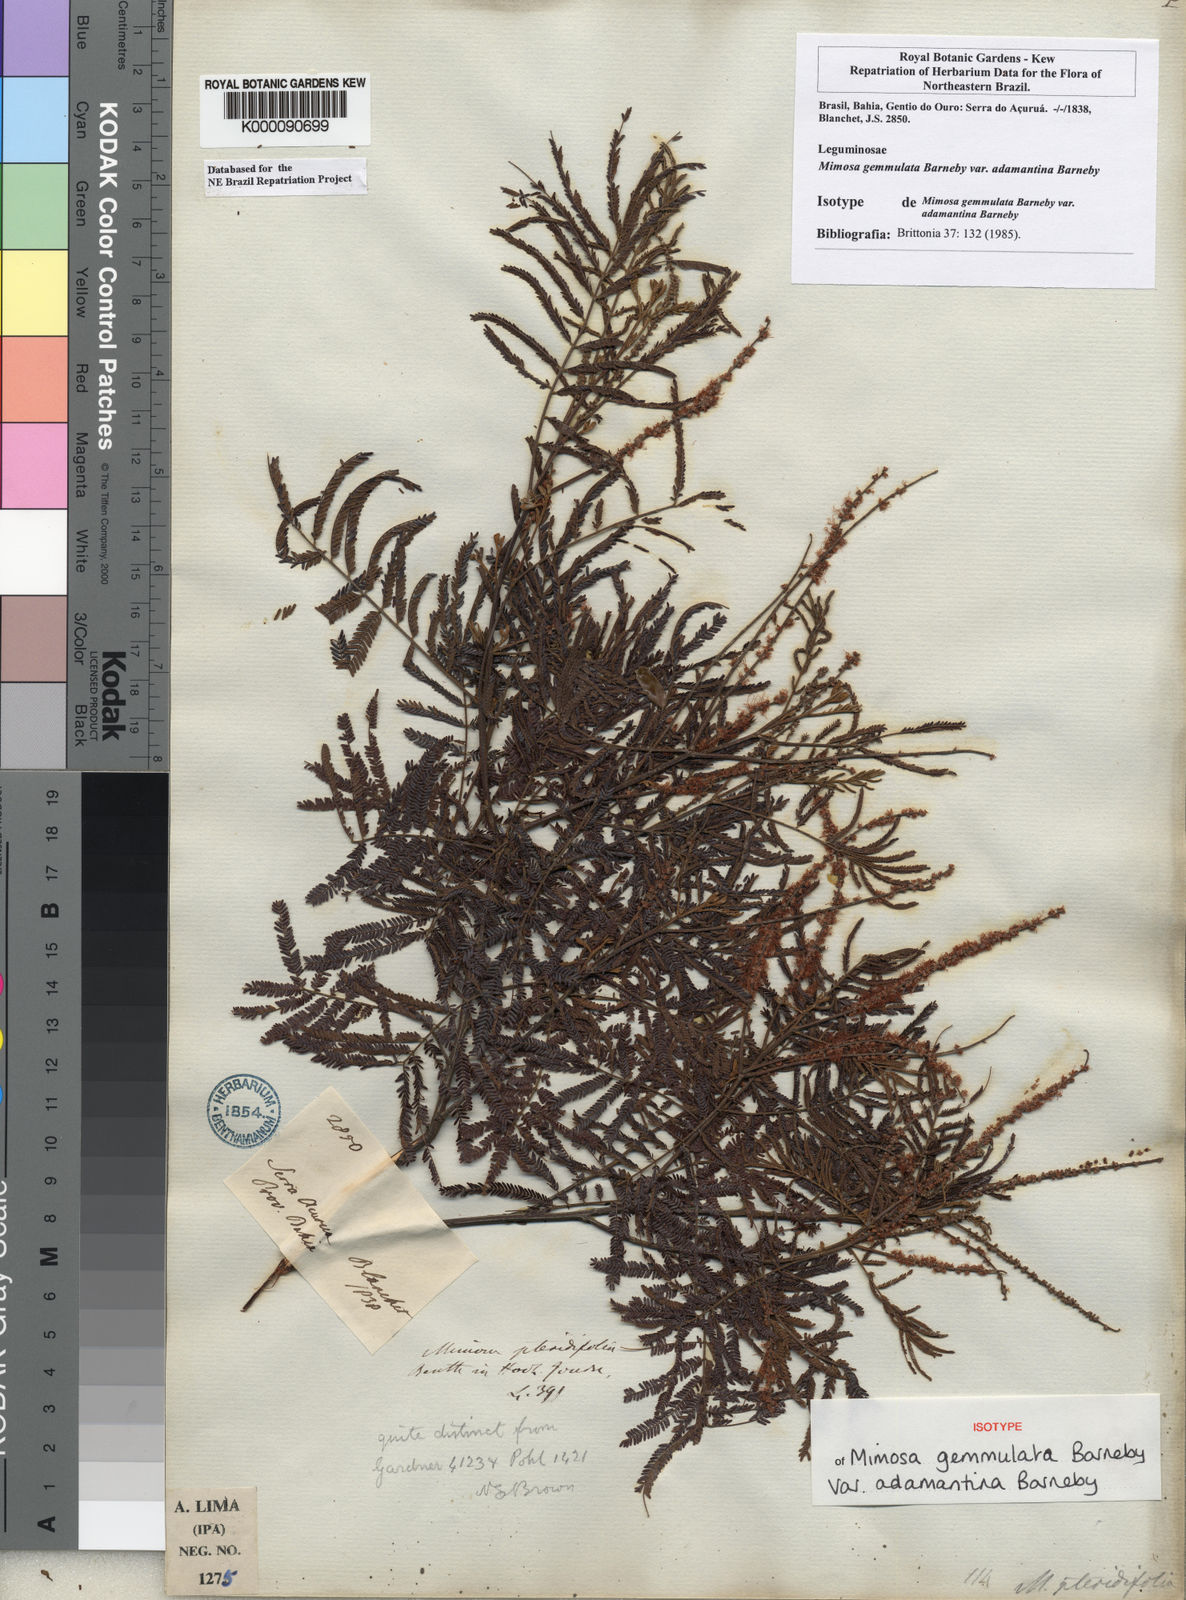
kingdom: Plantae
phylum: Tracheophyta
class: Magnoliopsida
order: Fabales
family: Fabaceae
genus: Mimosa
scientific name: Mimosa gemmulata
